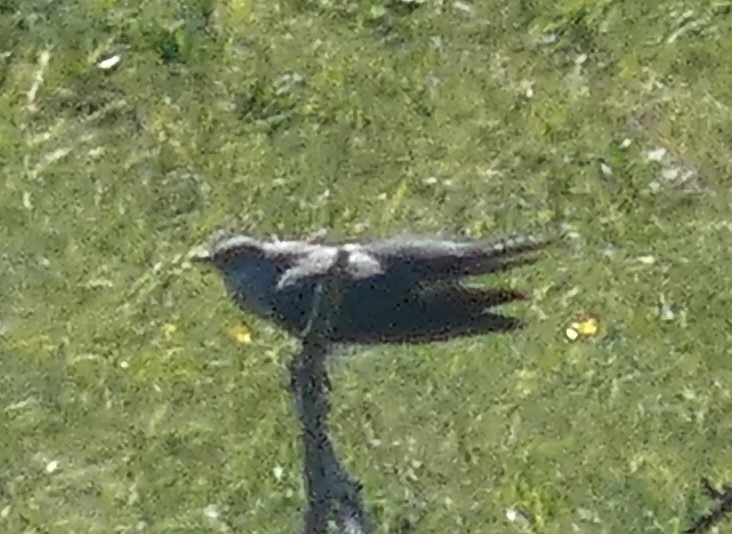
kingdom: Animalia
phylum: Chordata
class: Aves
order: Cuculiformes
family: Cuculidae
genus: Cuculus
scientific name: Cuculus canorus
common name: Gøg
